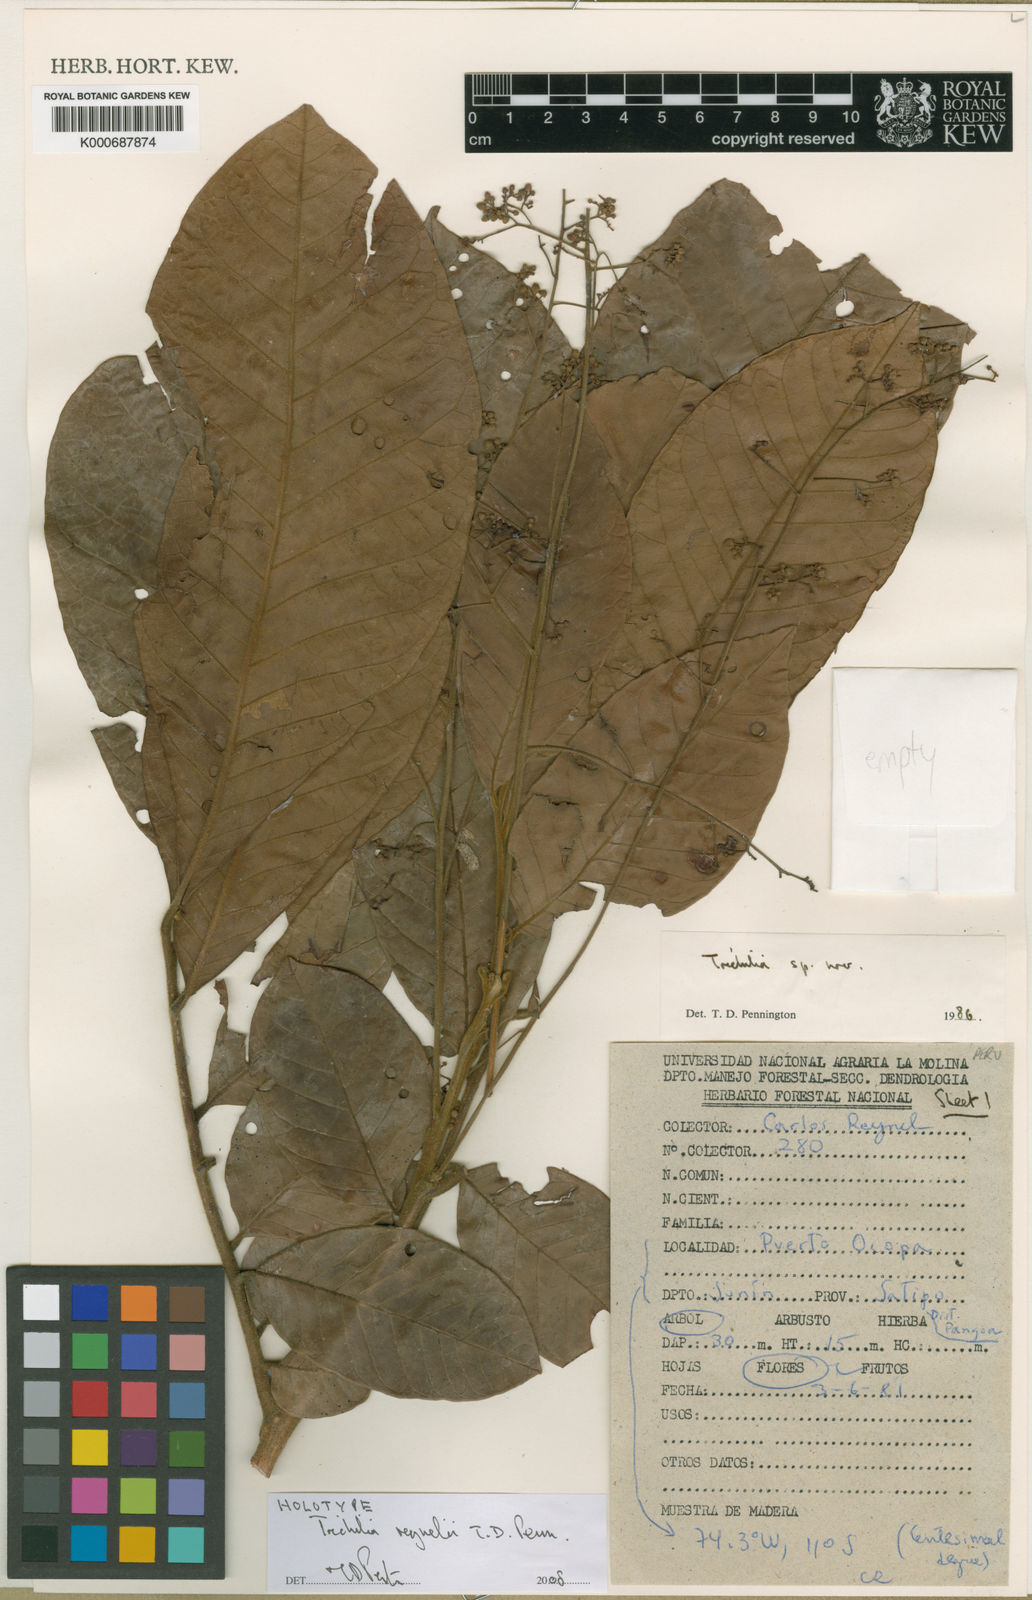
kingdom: Plantae
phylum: Tracheophyta
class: Magnoliopsida
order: Sapindales
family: Meliaceae
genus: Trichilia
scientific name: Trichilia
